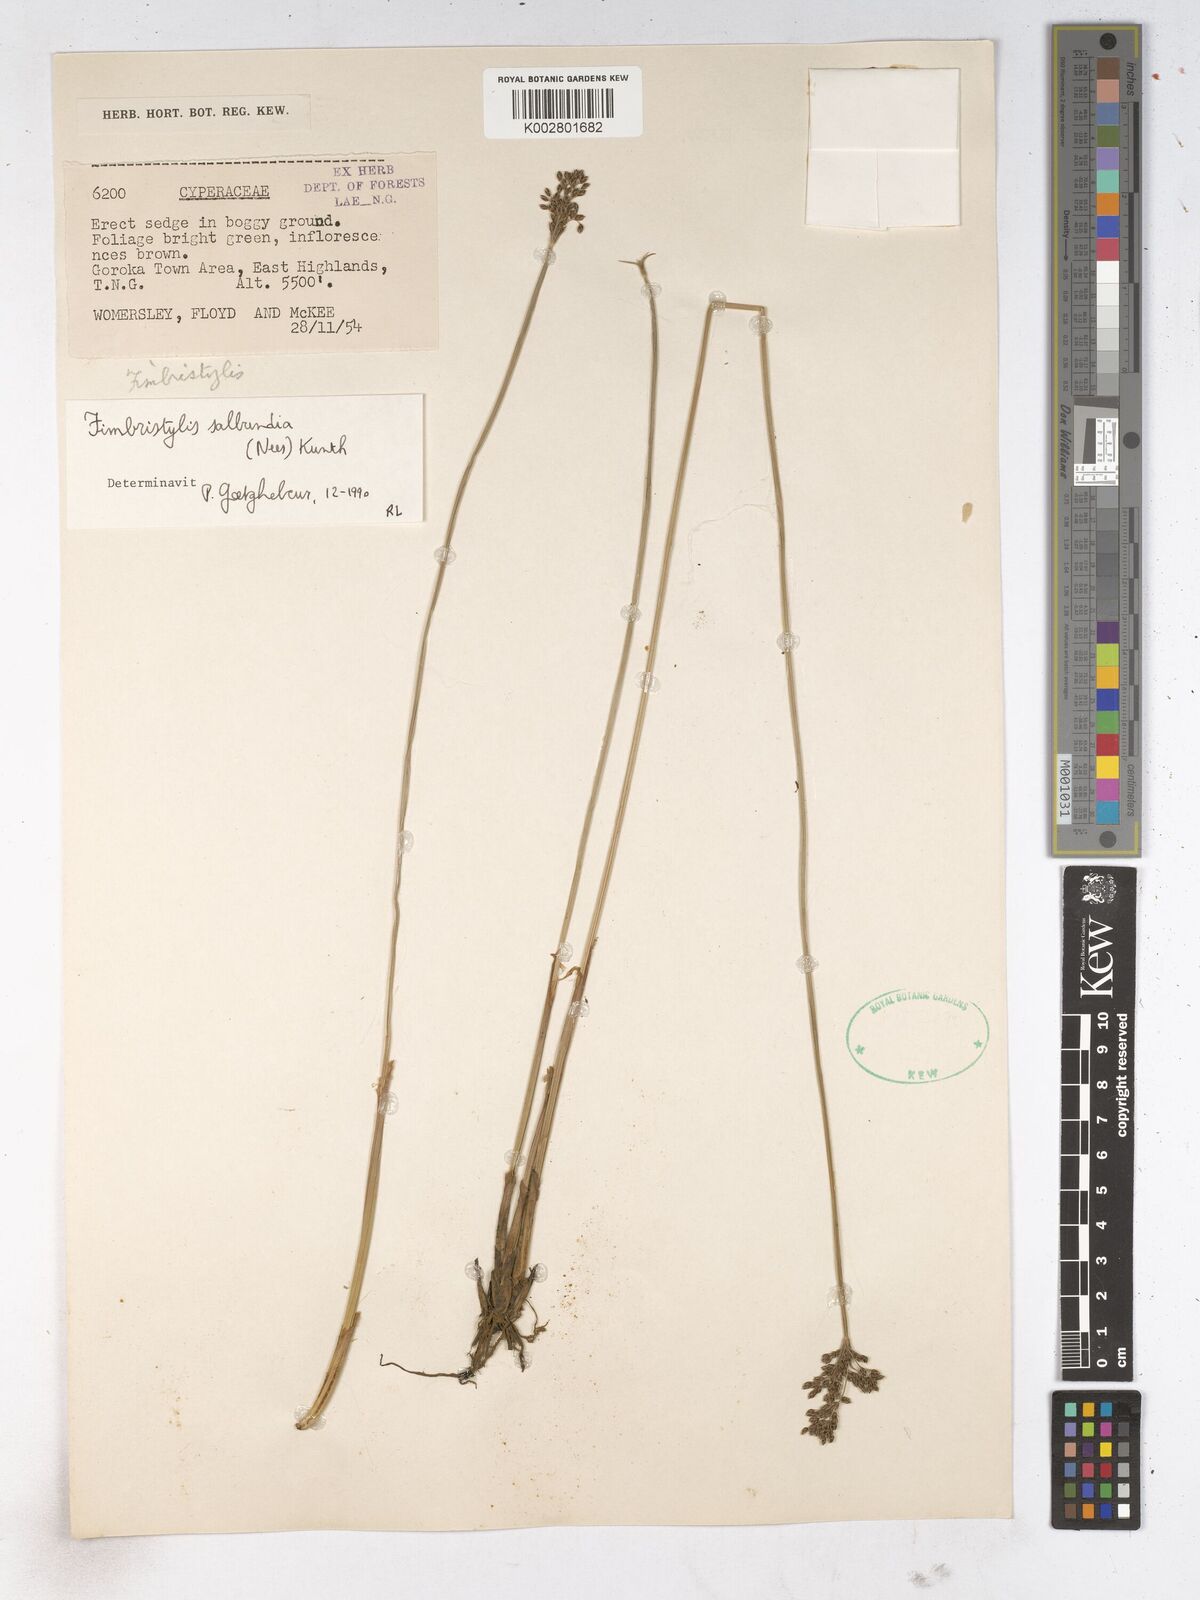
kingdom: Plantae
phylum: Tracheophyta
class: Liliopsida
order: Poales
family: Cyperaceae
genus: Fimbristylis
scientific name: Fimbristylis salbundia
